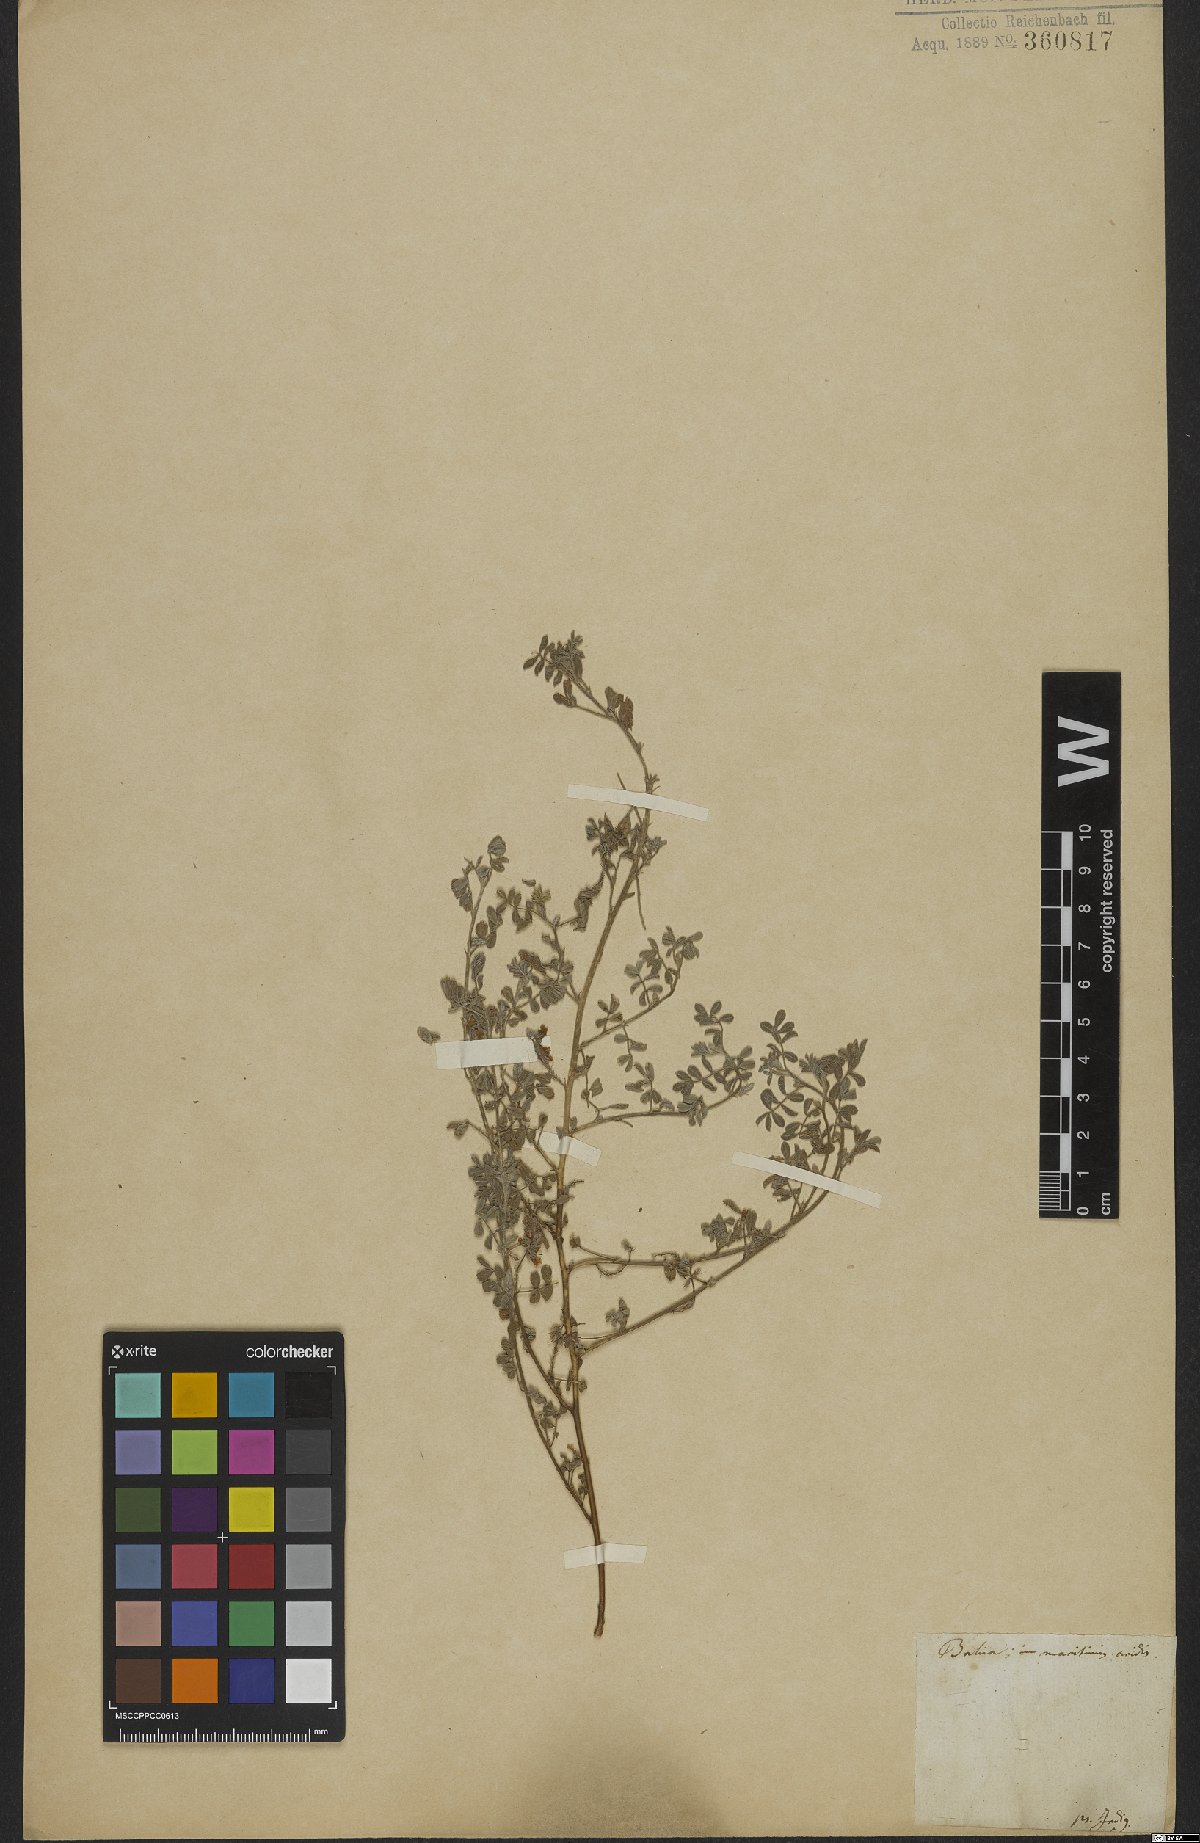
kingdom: Plantae
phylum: Tracheophyta
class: Magnoliopsida
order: Fabales
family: Fabaceae
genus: Indigofera
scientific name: Indigofera microcarpa
